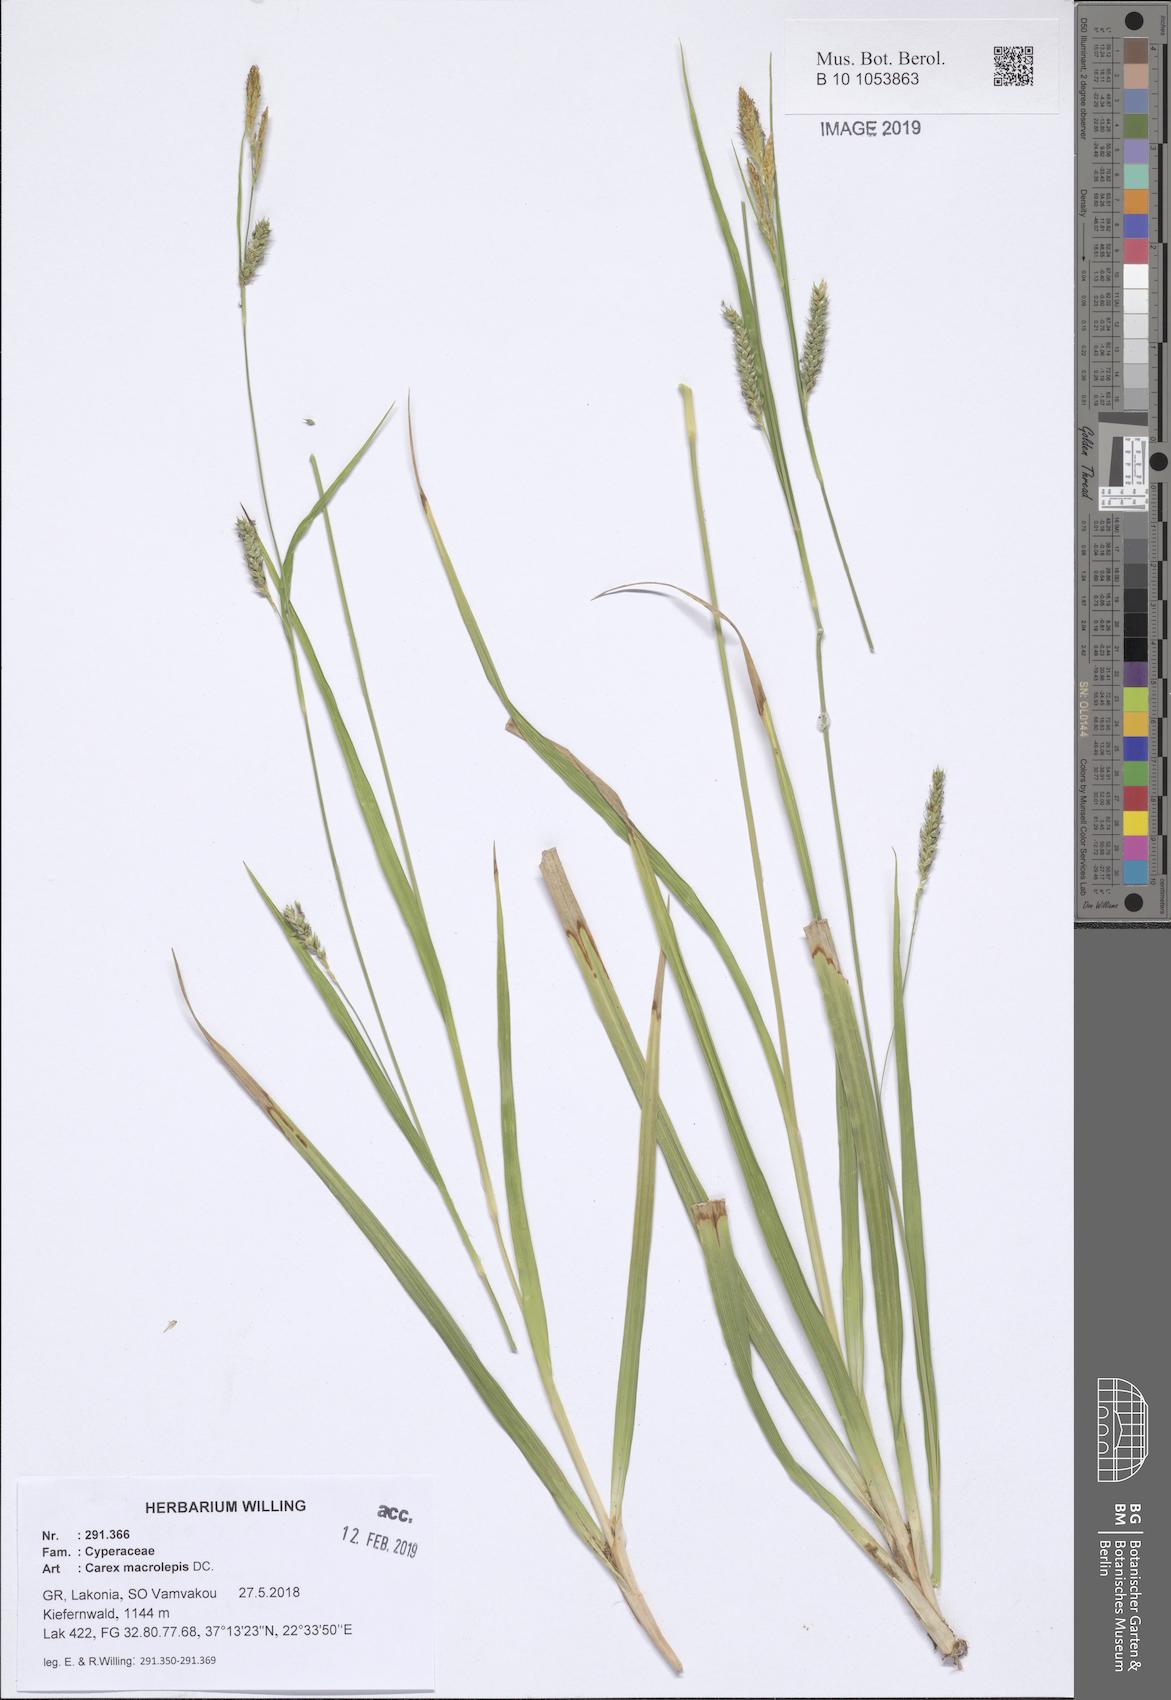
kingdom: Plantae
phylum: Tracheophyta
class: Liliopsida
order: Poales
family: Cyperaceae
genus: Carex
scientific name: Carex macrolepis
